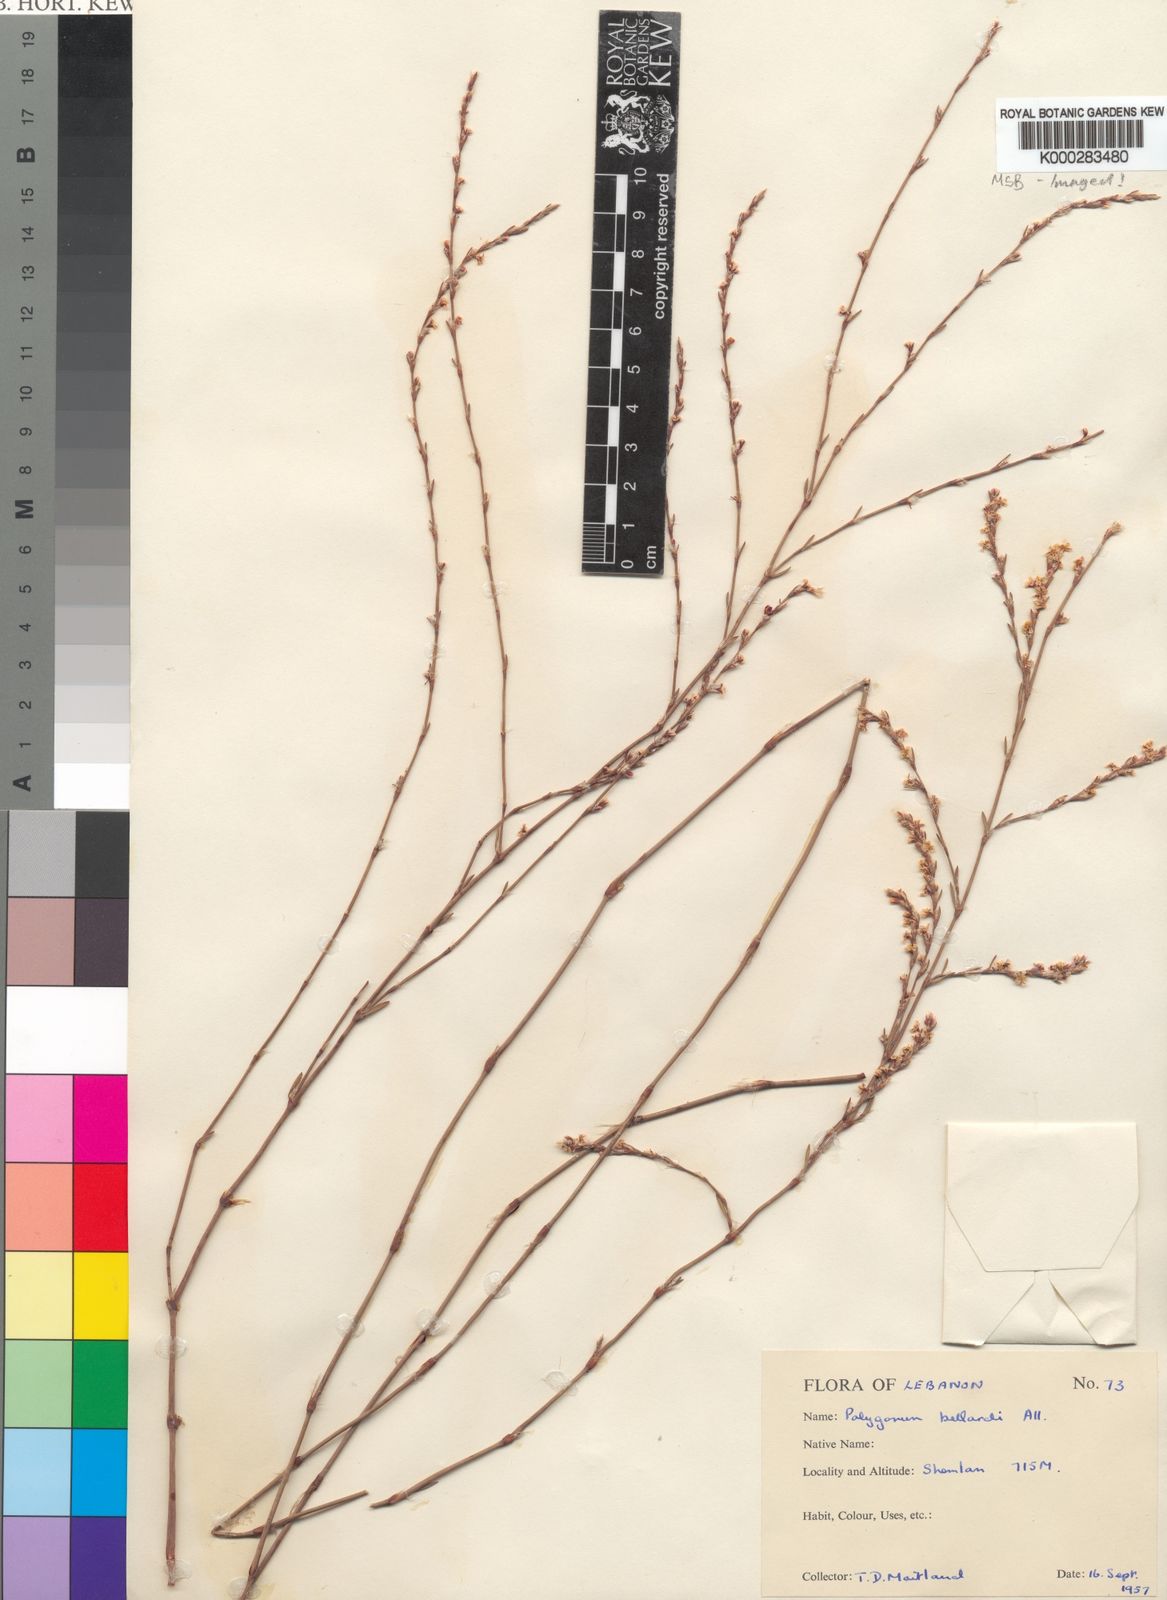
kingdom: Plantae
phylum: Tracheophyta
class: Magnoliopsida
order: Caryophyllales
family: Polygonaceae
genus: Polygonum
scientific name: Polygonum bellardii
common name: Narrowleaf knotweed
